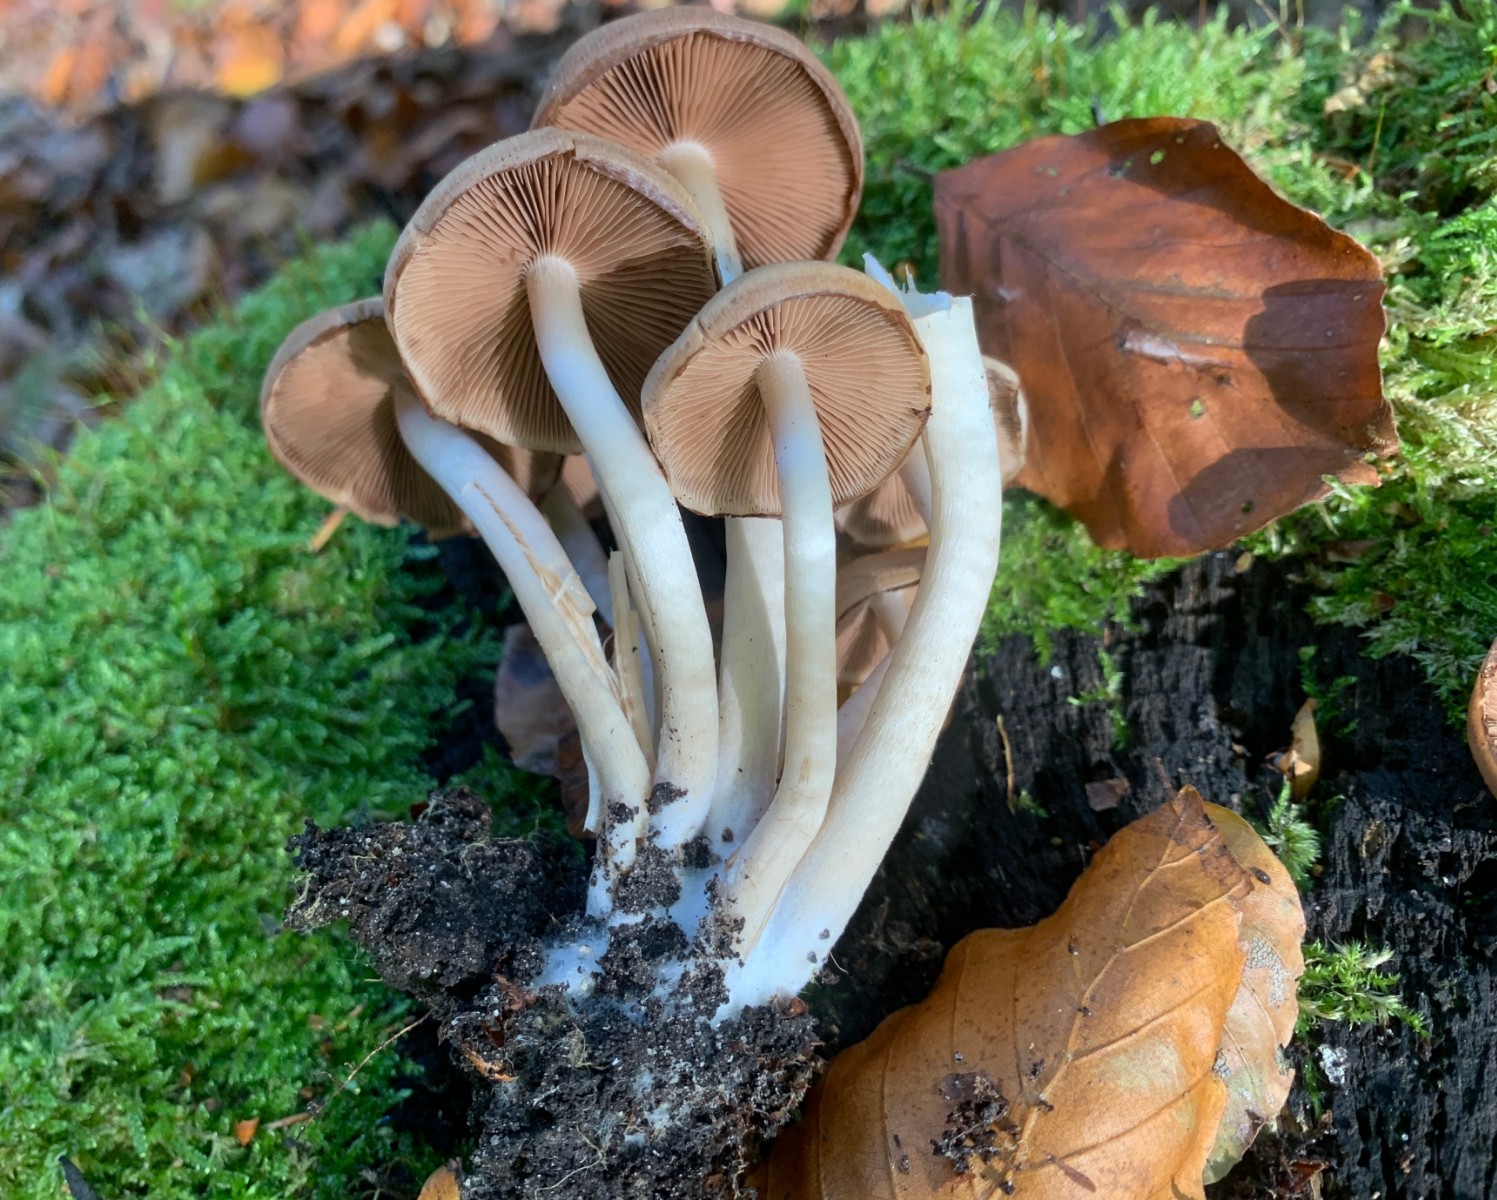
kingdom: Fungi
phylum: Basidiomycota
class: Agaricomycetes
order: Agaricales
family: Psathyrellaceae
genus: Psathyrella
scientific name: Psathyrella piluliformis
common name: lysstokket mørkhat
